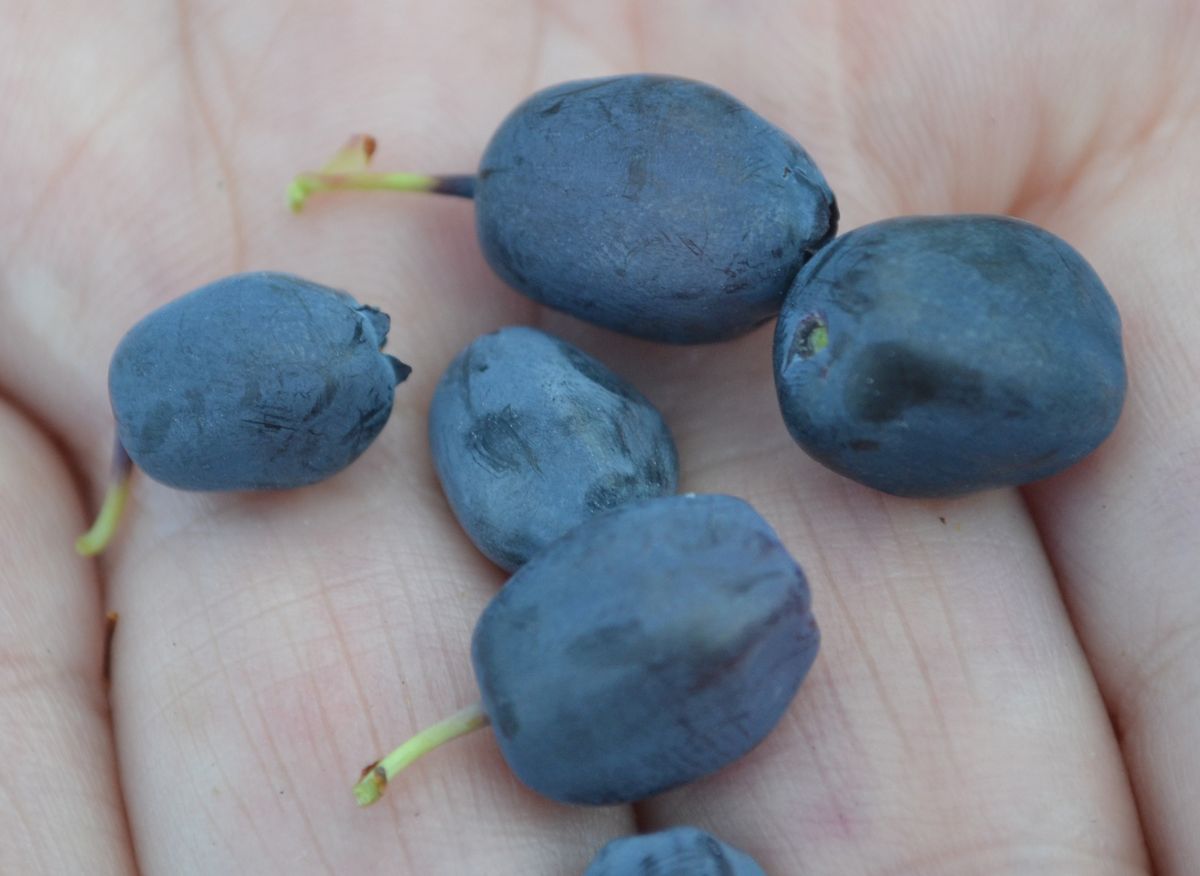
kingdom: Plantae
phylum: Tracheophyta
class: Magnoliopsida
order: Ericales
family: Ericaceae
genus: Vaccinium
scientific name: Vaccinium uliginosum
